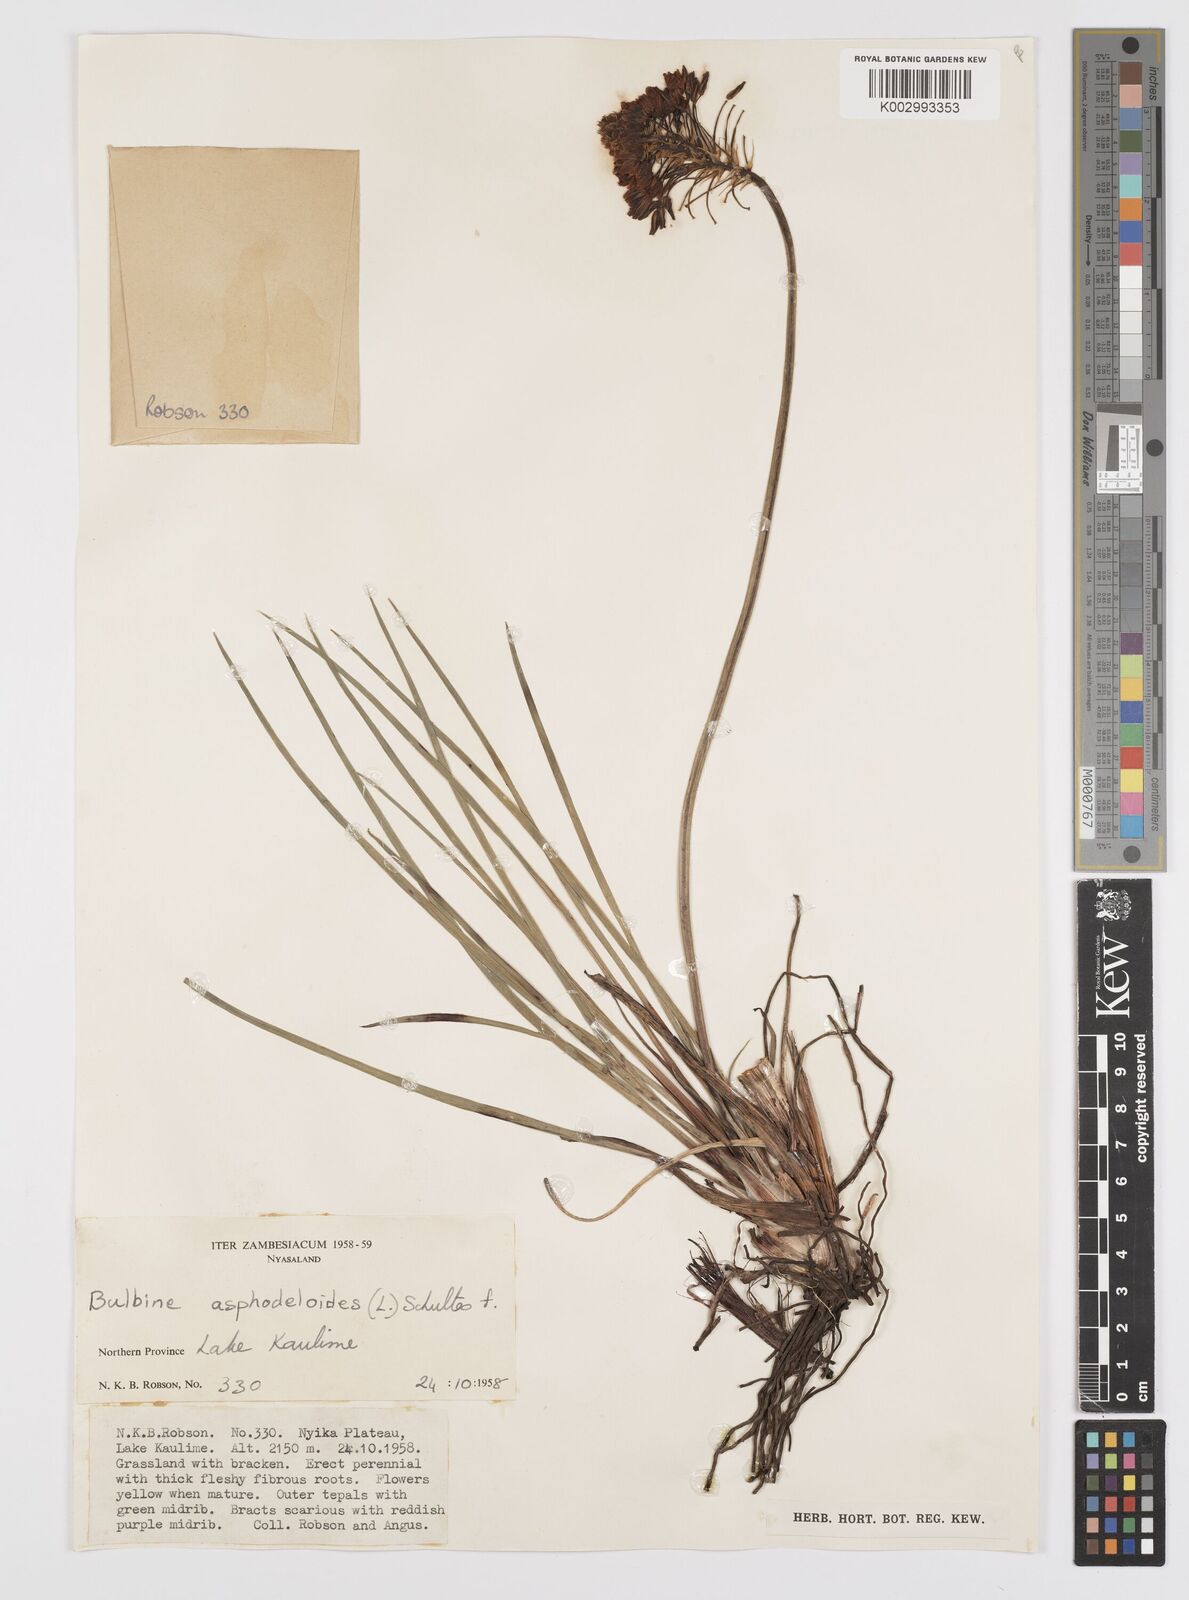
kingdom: Plantae
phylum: Tracheophyta
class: Liliopsida
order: Asparagales
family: Asphodelaceae
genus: Bulbine
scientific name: Bulbine abyssinica
